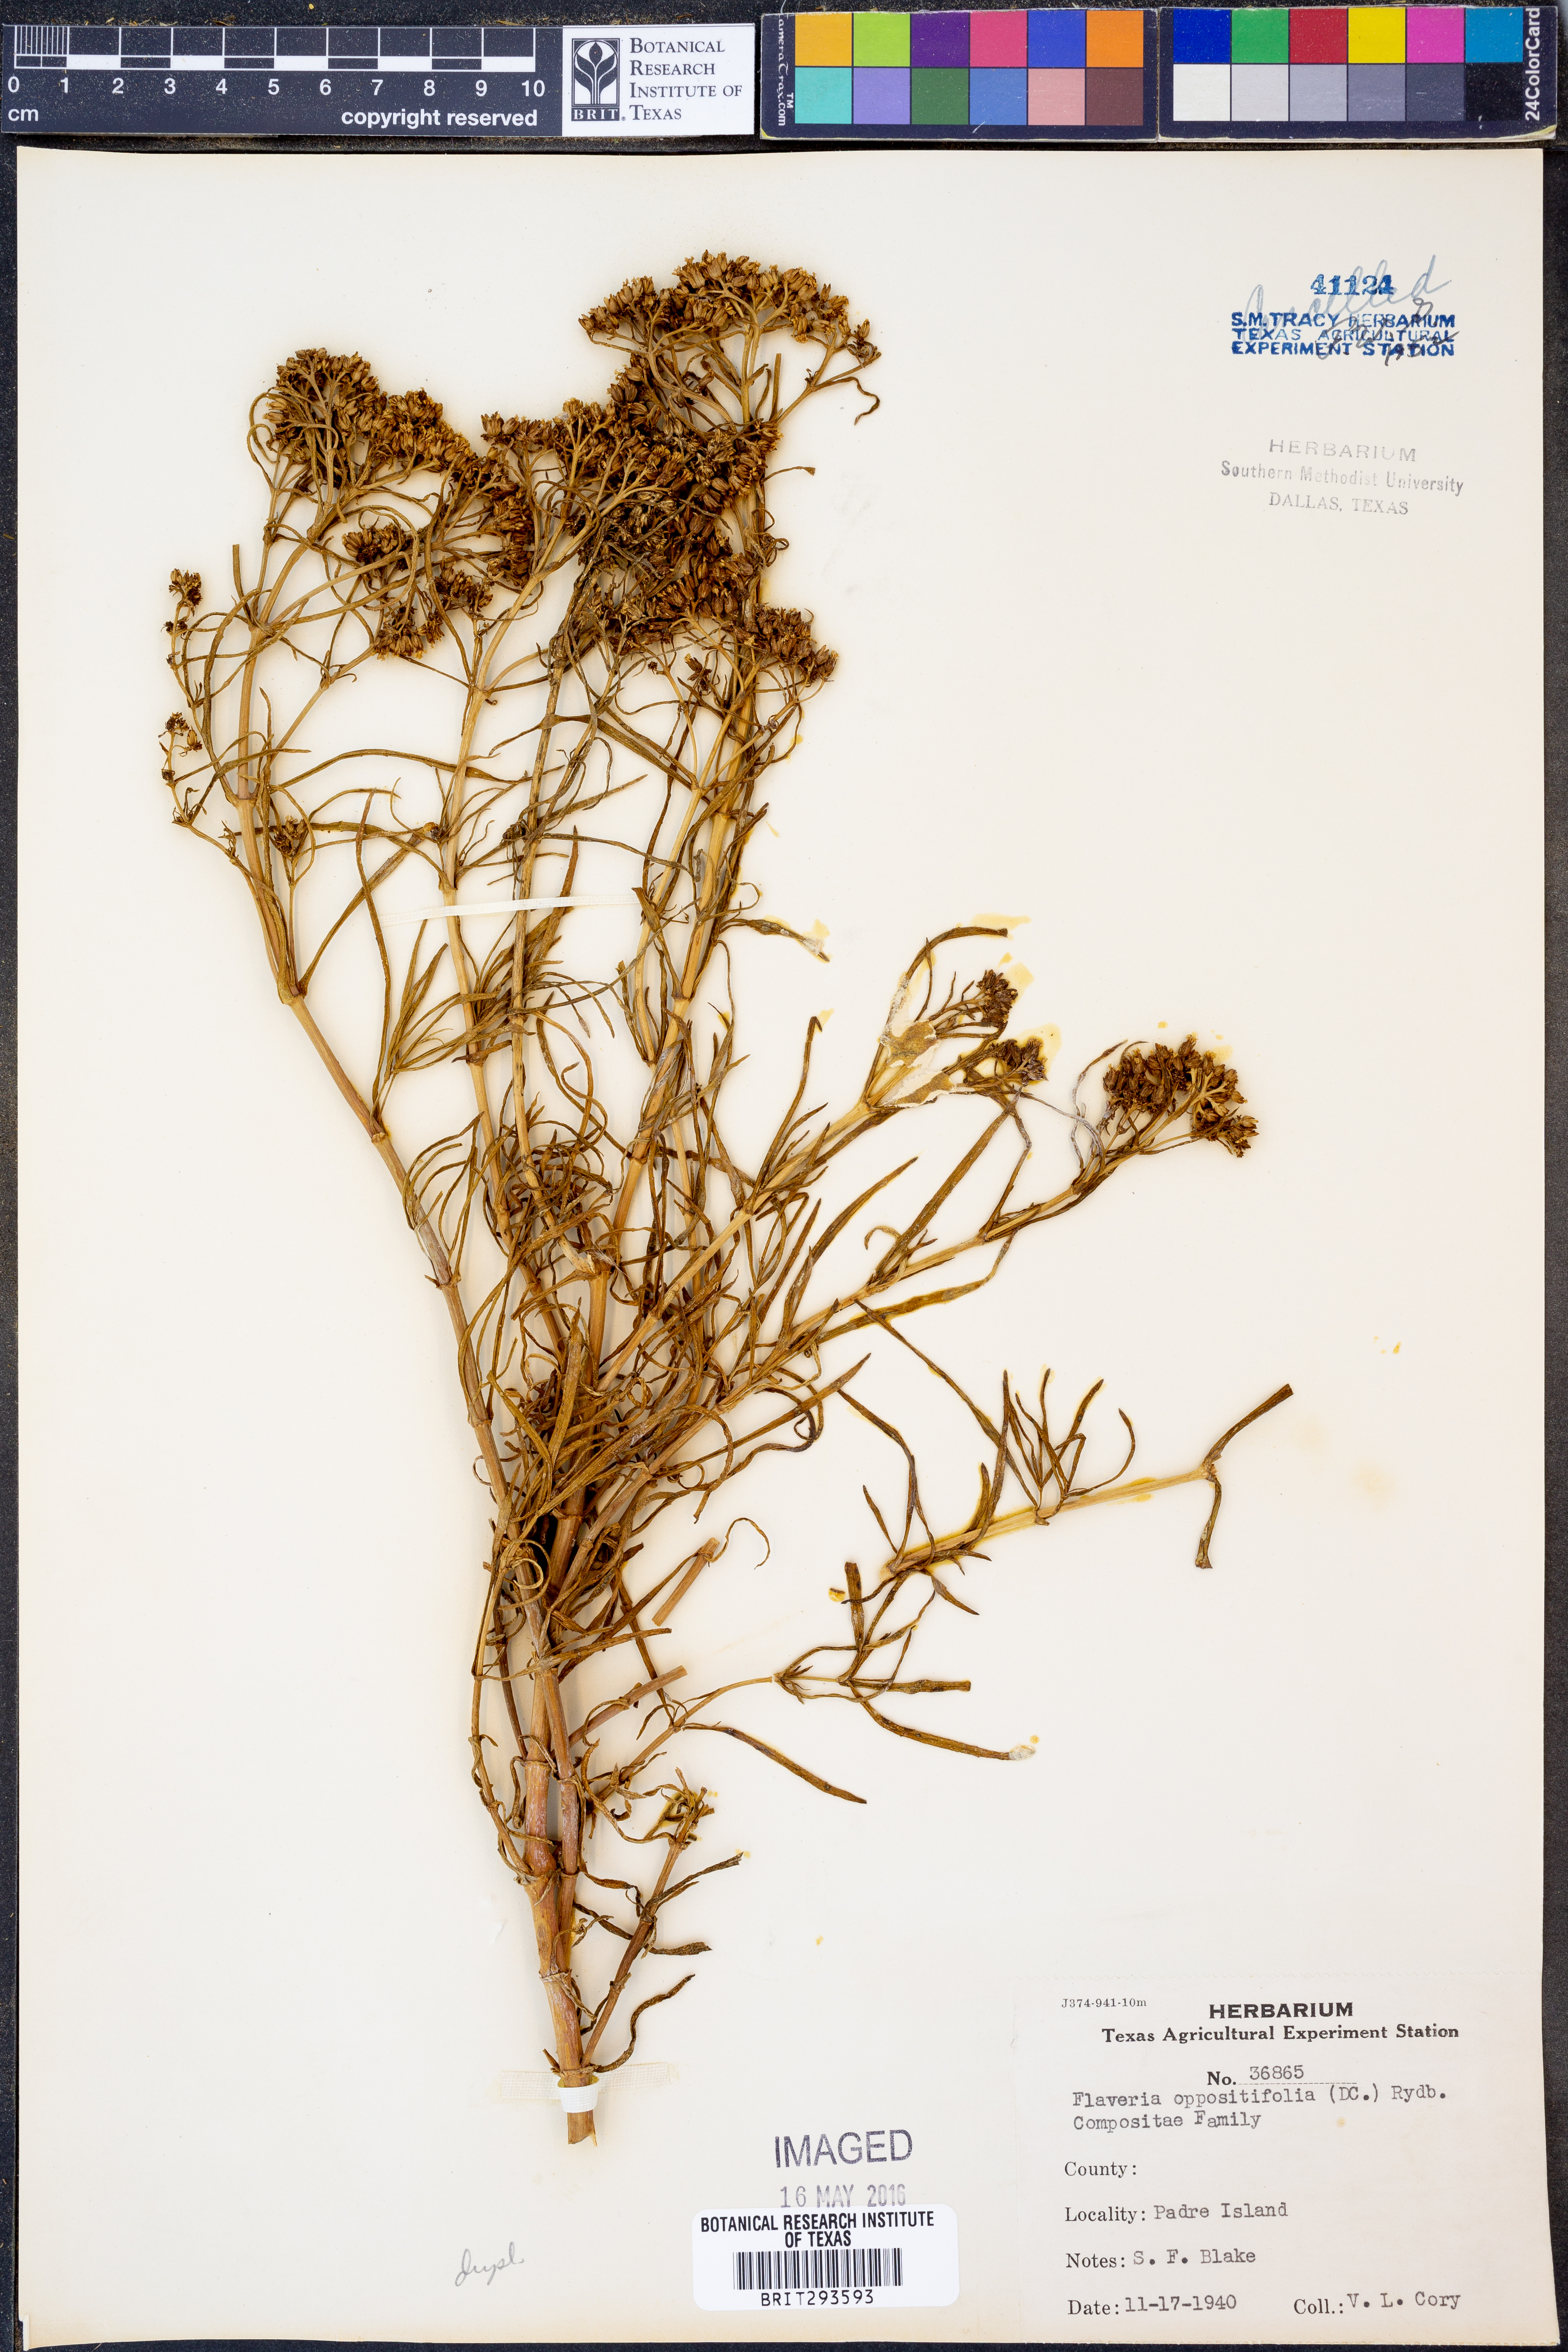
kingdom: Plantae
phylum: Tracheophyta
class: Magnoliopsida
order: Asterales
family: Asteraceae
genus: Flaveria
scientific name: Flaveria oppositifolia
